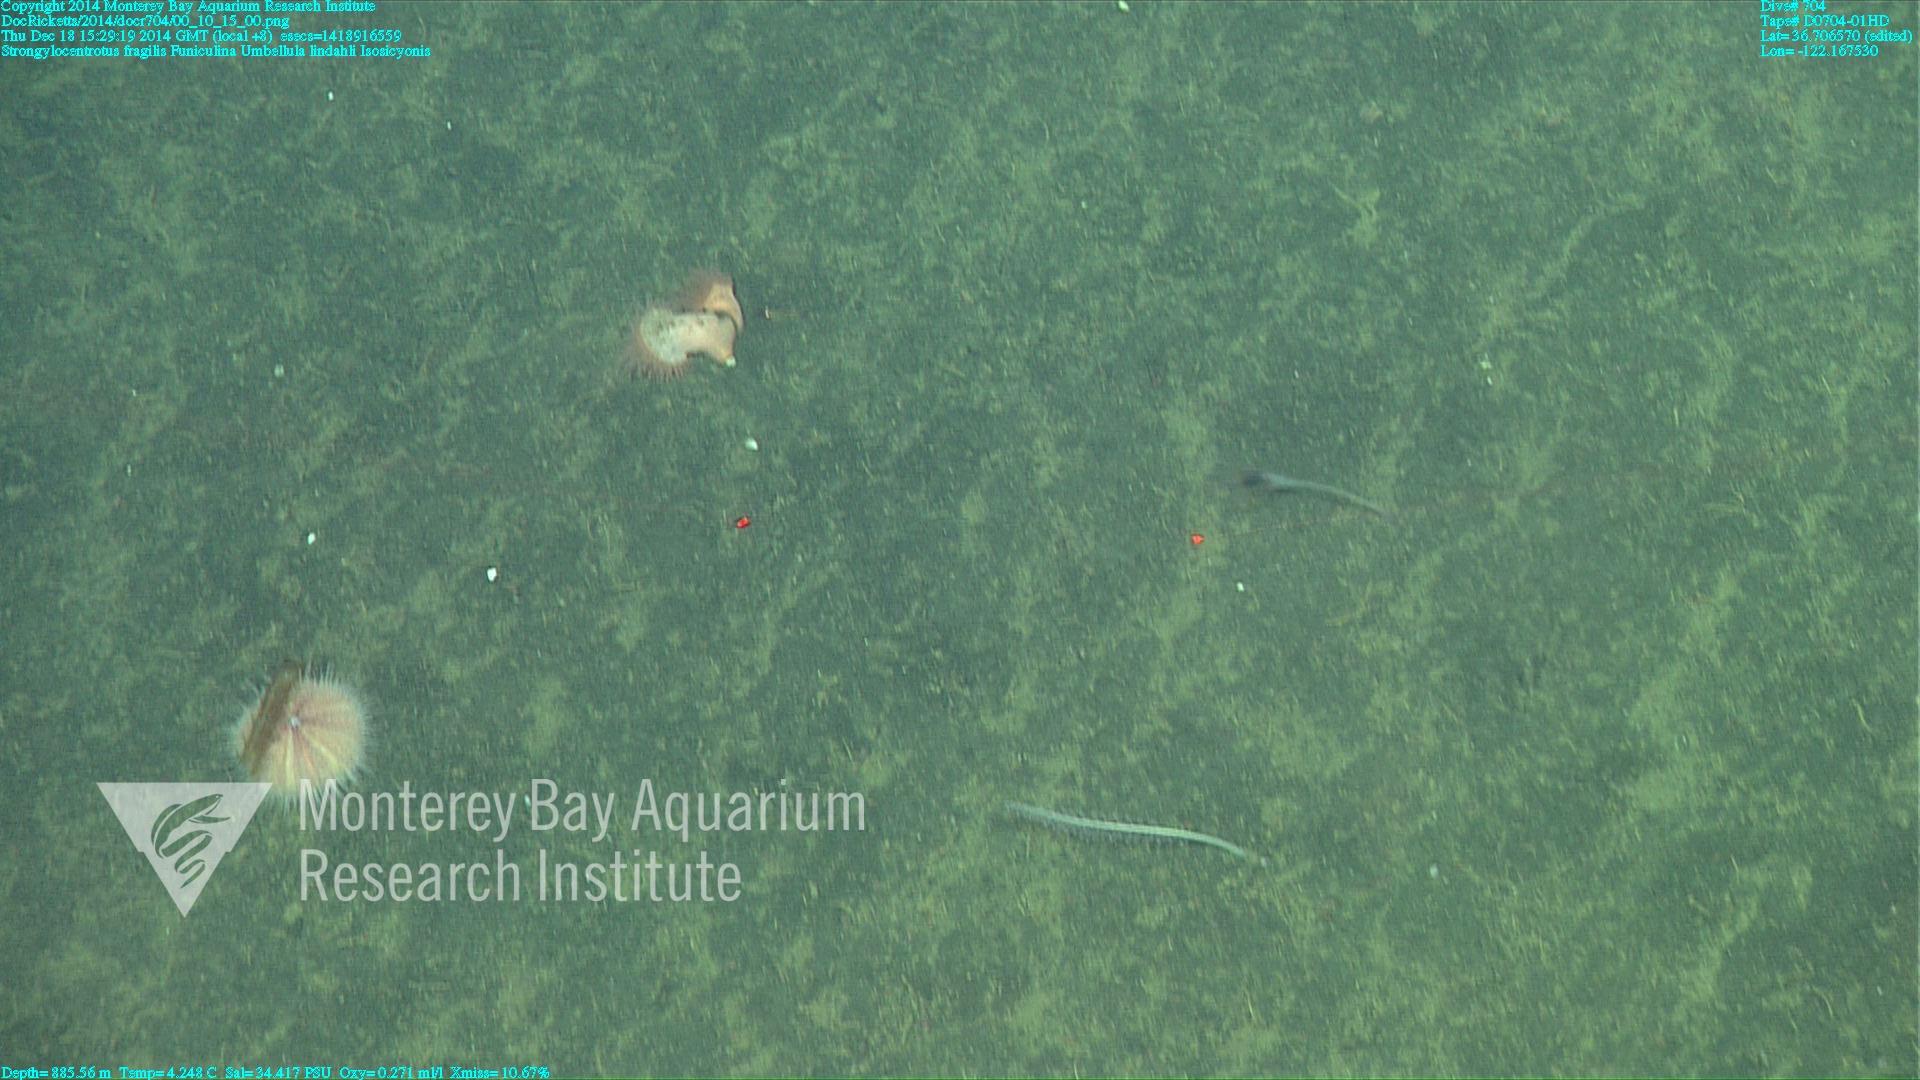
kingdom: Animalia
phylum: Cnidaria
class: Anthozoa
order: Scleralcyonacea
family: Funiculinidae
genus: Funiculina
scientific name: Funiculina
